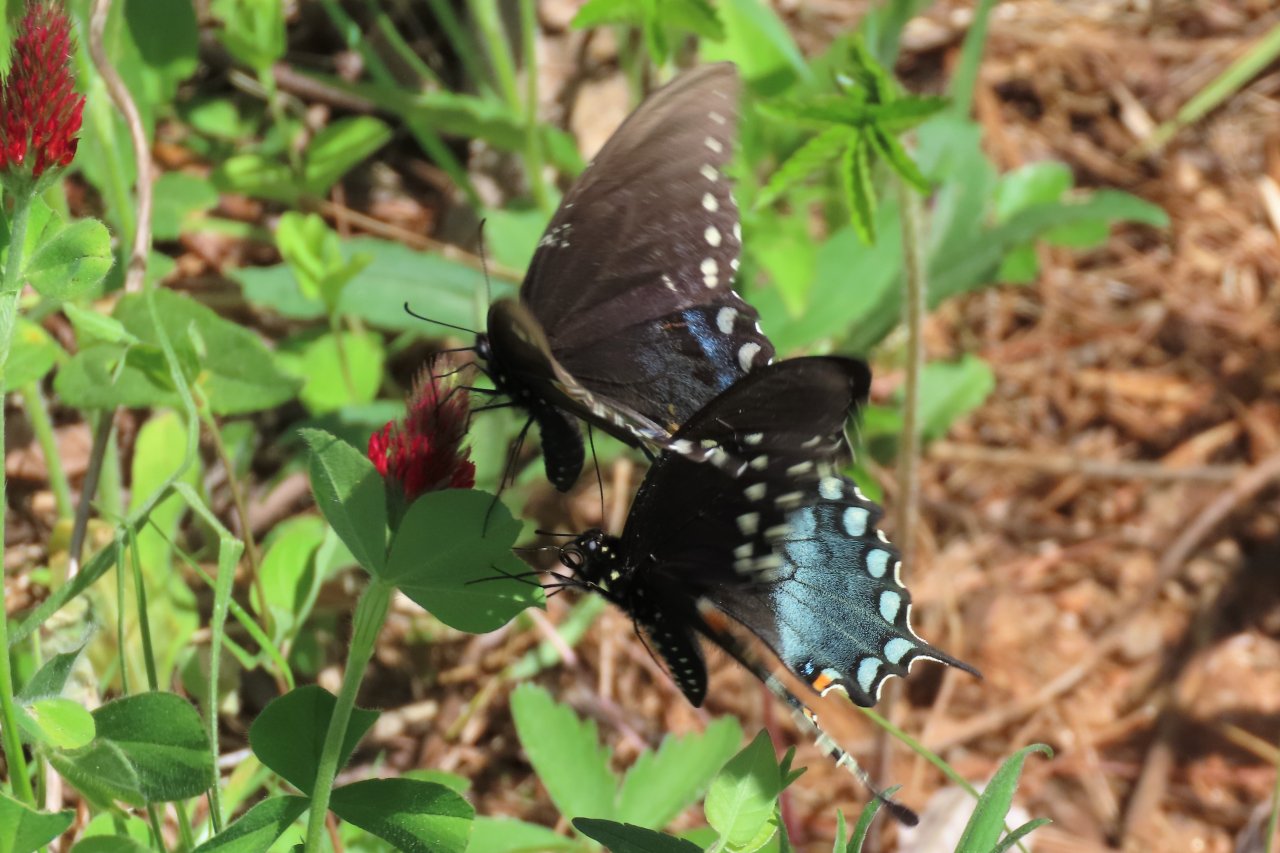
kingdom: Animalia
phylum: Arthropoda
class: Insecta
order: Lepidoptera
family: Papilionidae
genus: Pterourus
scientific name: Pterourus troilus
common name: Spicebush Swallowtail
